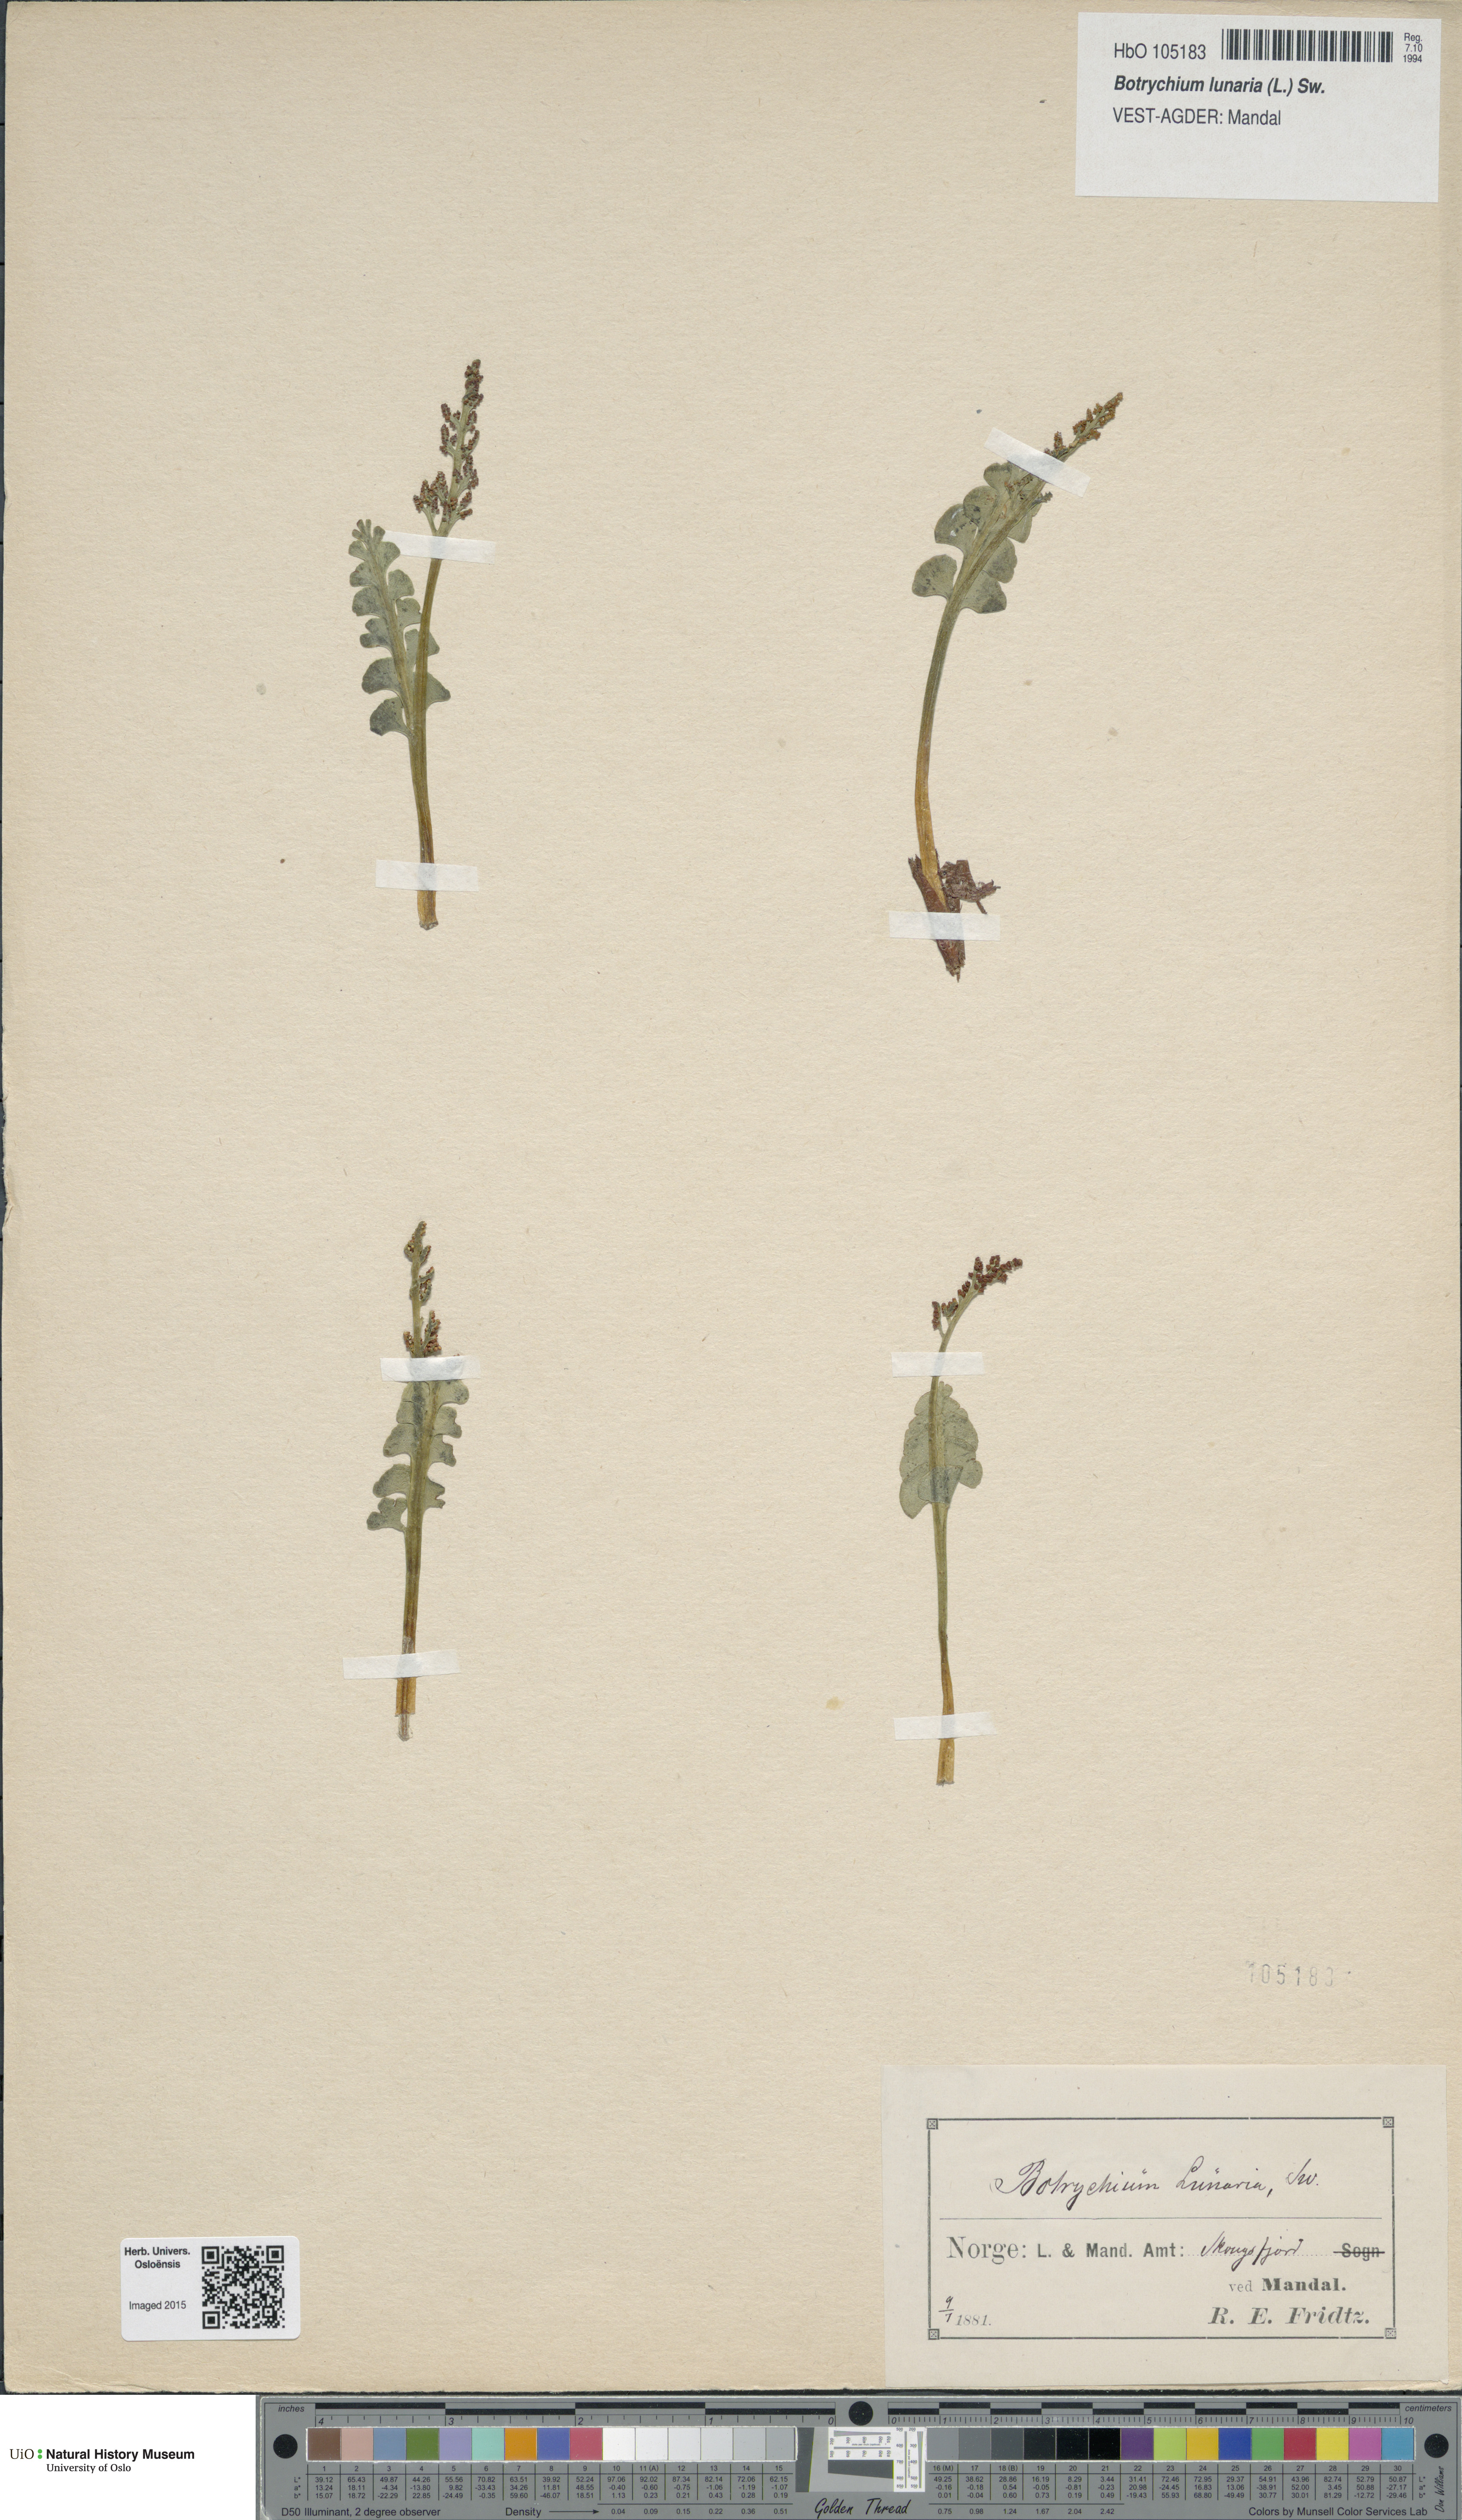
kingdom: Plantae
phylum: Tracheophyta
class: Polypodiopsida
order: Ophioglossales
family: Ophioglossaceae
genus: Botrychium
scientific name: Botrychium lunaria
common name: Moonwort
